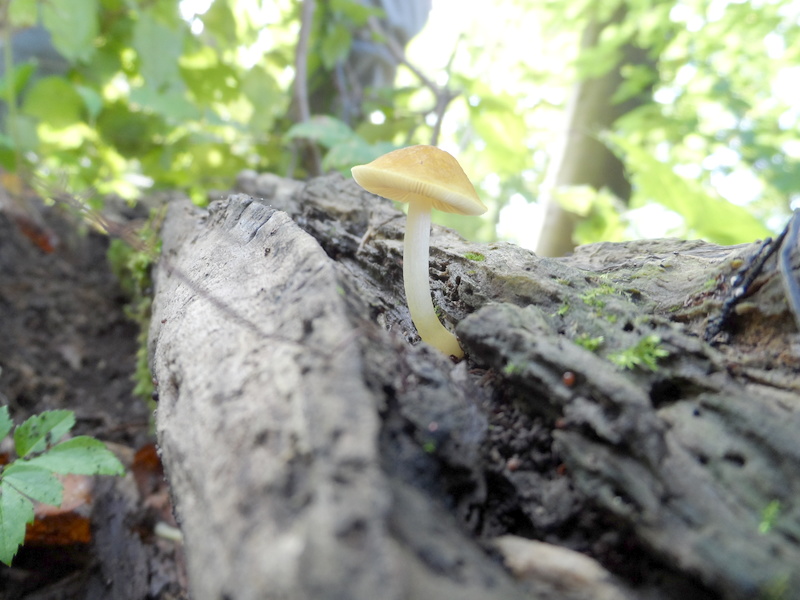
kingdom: Plantae
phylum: Tracheophyta
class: Magnoliopsida
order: Fagales
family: Betulaceae
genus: Carpinus
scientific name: Carpinus betulus
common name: Hornbeam
